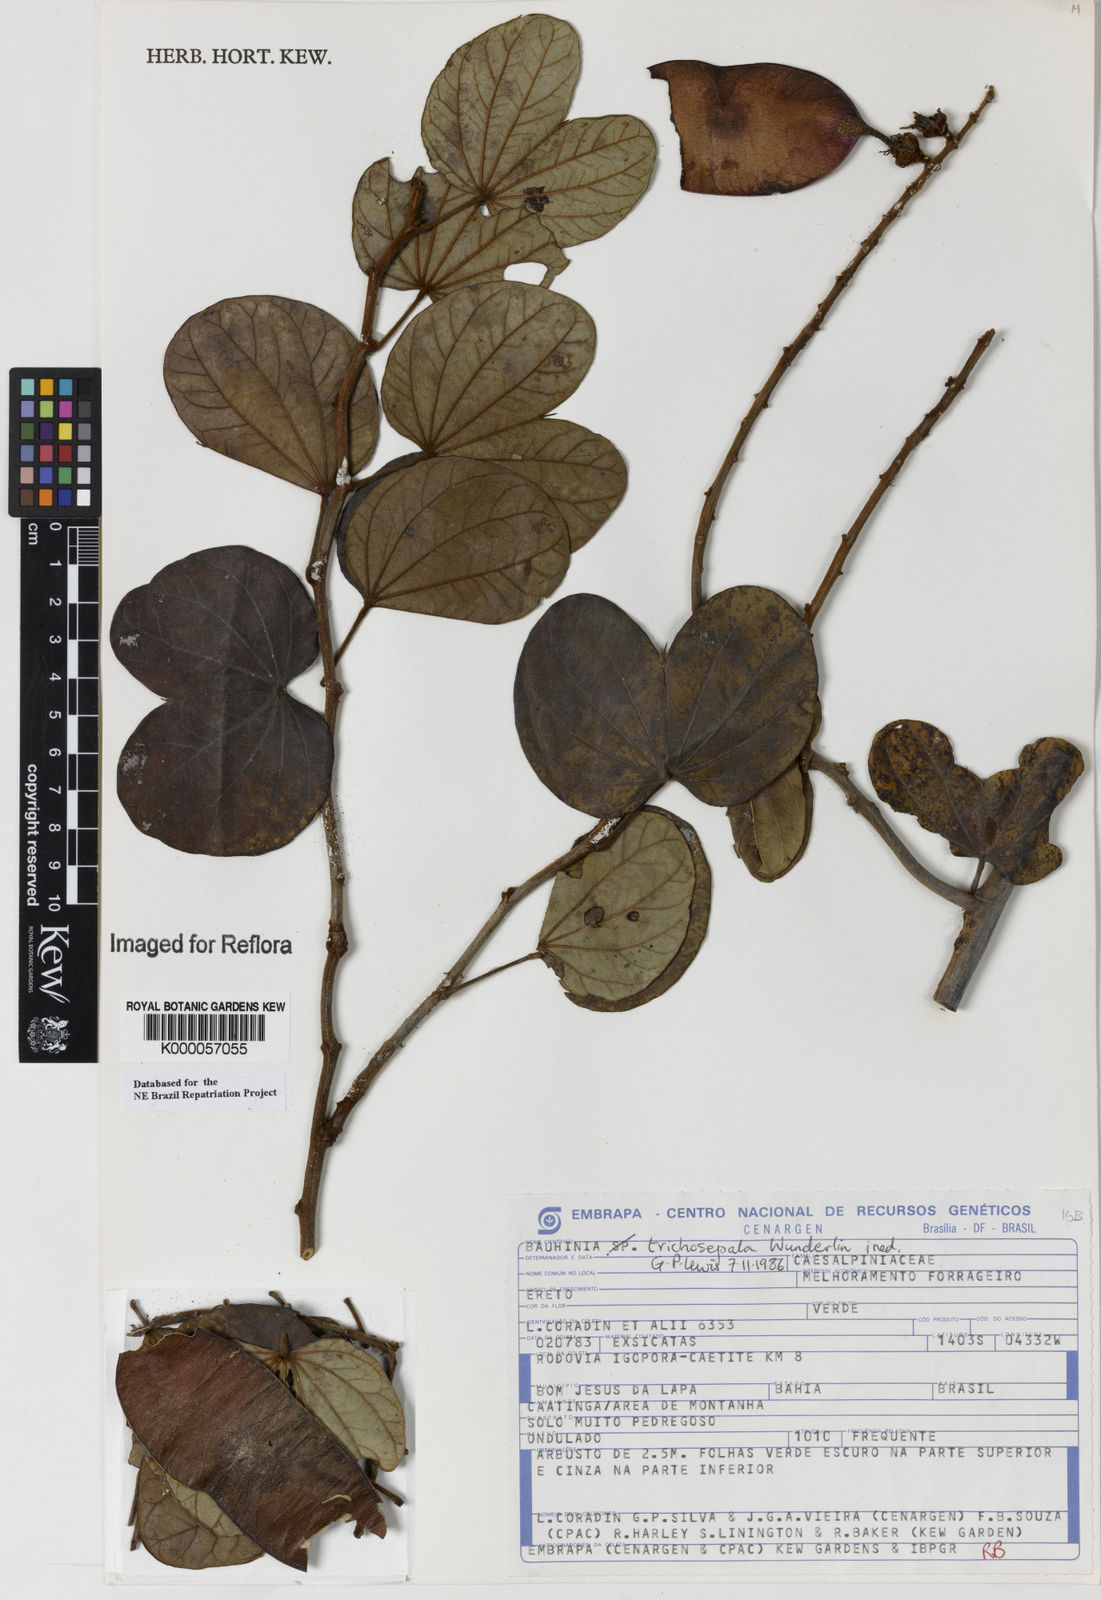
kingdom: Plantae
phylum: Tracheophyta
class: Magnoliopsida
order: Fabales
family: Fabaceae
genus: Schnella
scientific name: Schnella trichosepala
